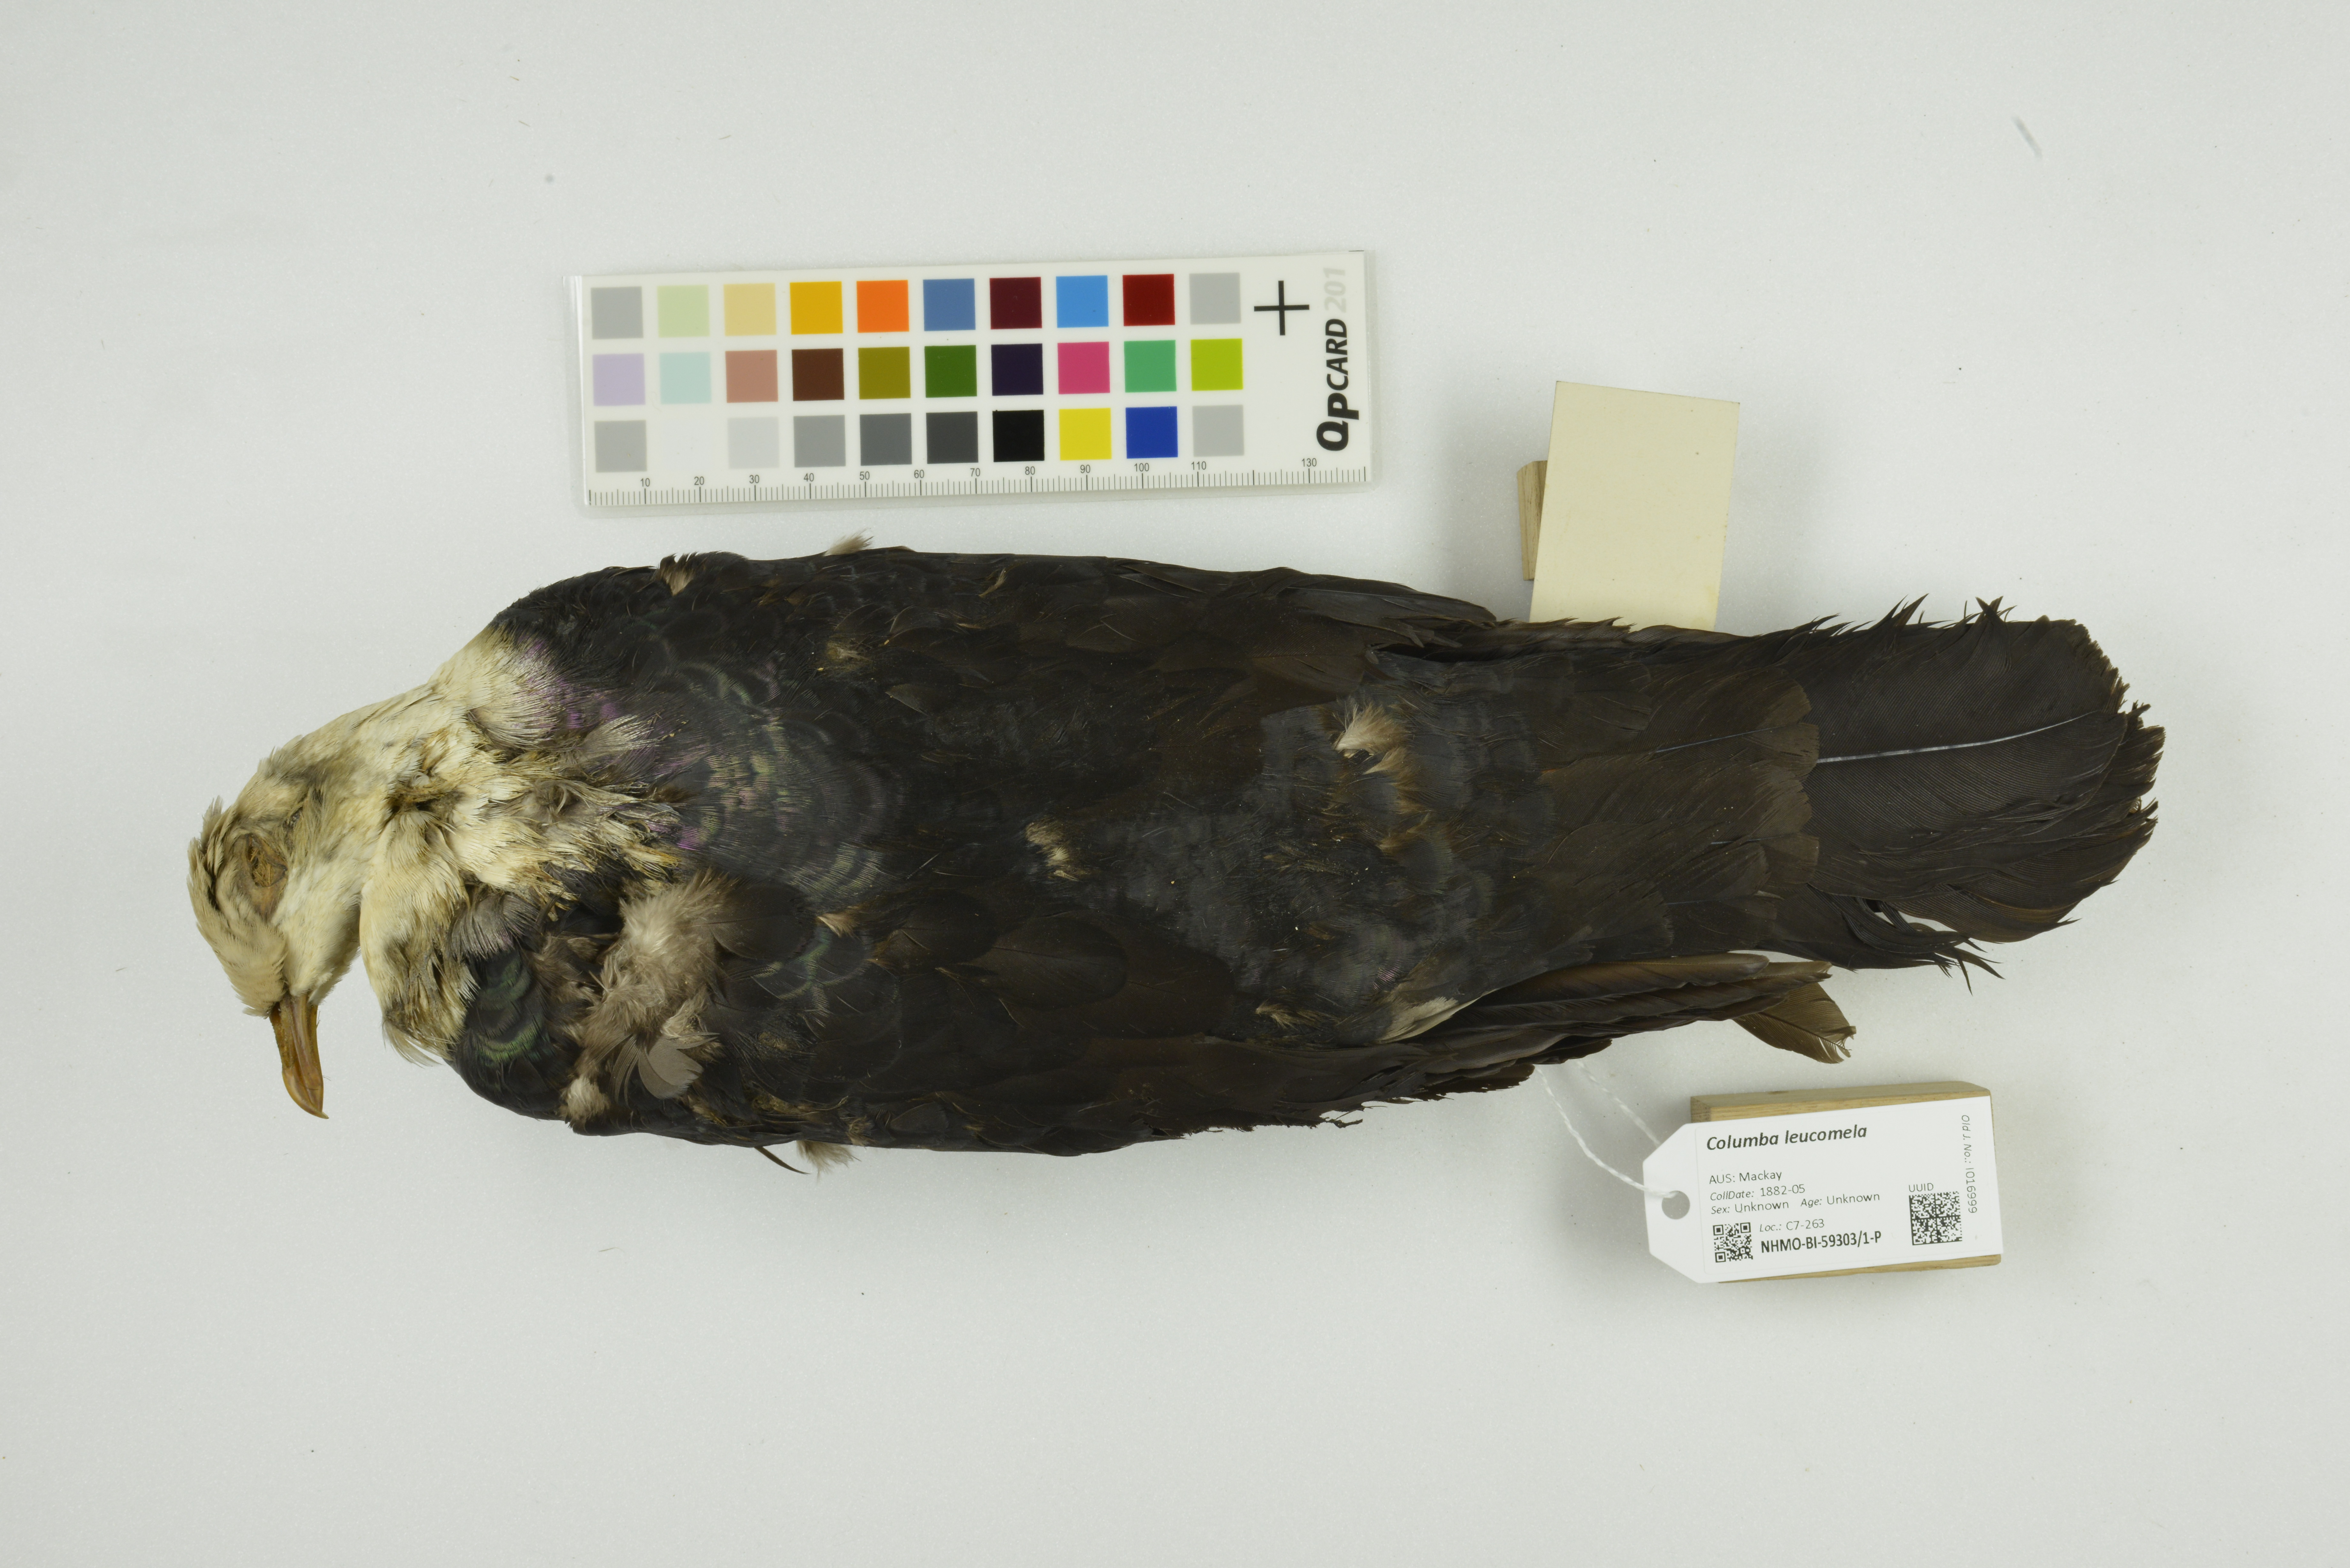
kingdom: Animalia
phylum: Chordata
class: Aves
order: Columbiformes
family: Columbidae
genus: Columba
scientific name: Columba leucomela
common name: White-headed pigeon
